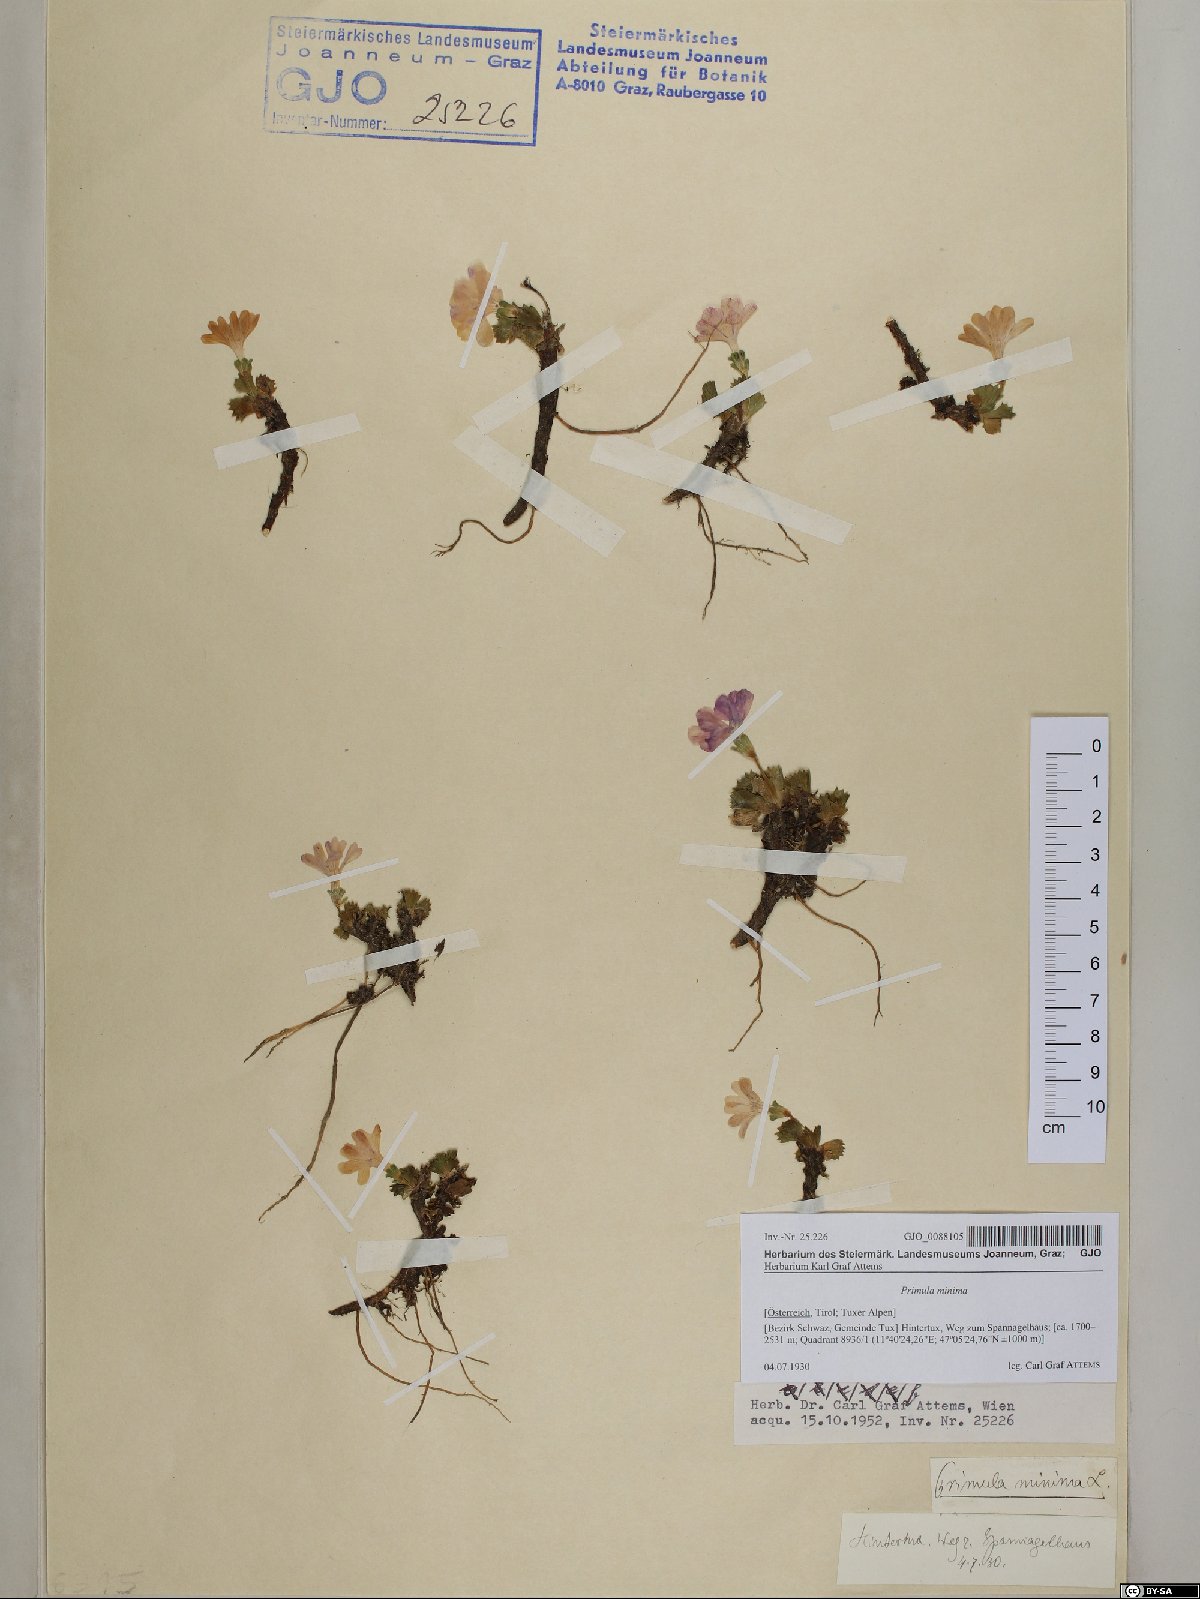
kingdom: Plantae
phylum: Tracheophyta
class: Magnoliopsida
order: Ericales
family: Primulaceae
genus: Primula
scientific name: Primula minima
